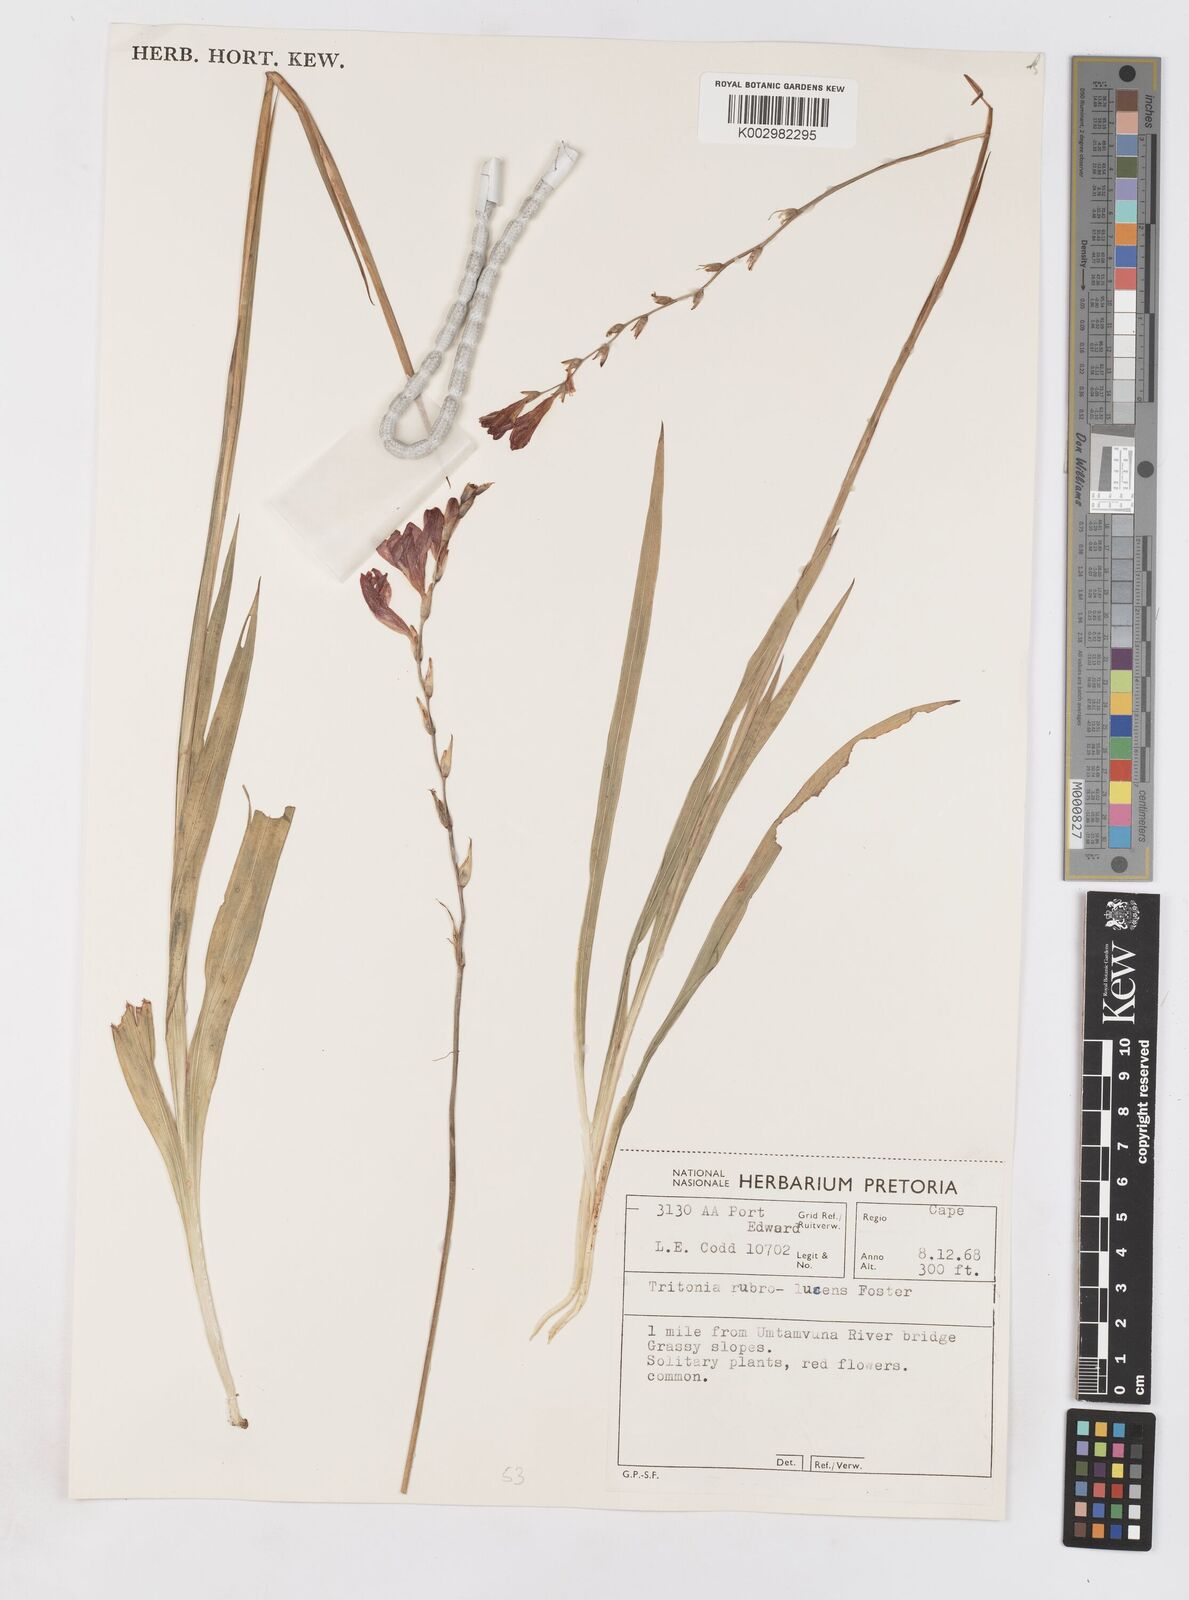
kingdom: Plantae
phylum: Tracheophyta
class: Liliopsida
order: Asparagales
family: Iridaceae
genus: Tritonia
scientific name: Tritonia disticha
